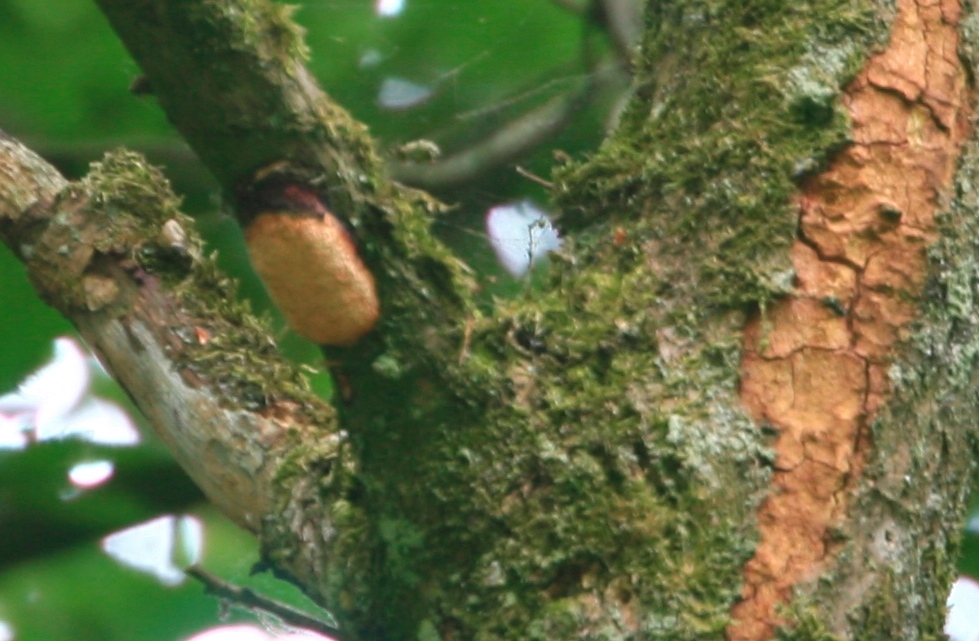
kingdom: Fungi
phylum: Basidiomycota
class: Agaricomycetes
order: Polyporales
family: Polyporaceae
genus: Szczepkamyces
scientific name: Szczepkamyces campestris
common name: hasselporesvamp
